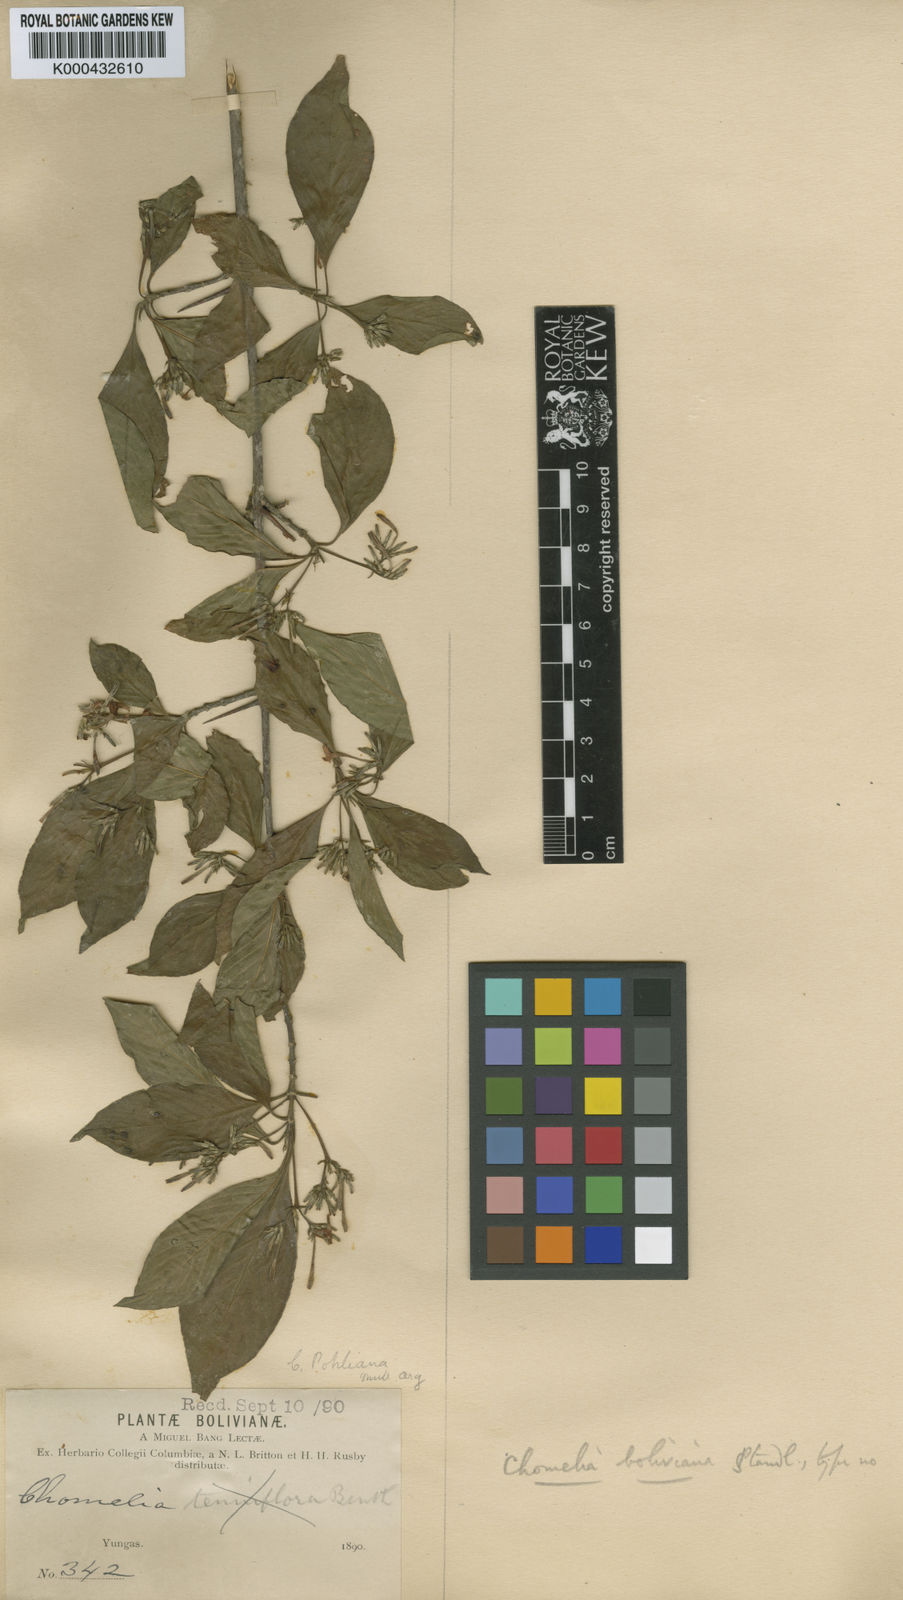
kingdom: Plantae
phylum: Tracheophyta
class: Magnoliopsida
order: Gentianales
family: Rubiaceae
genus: Chomelia
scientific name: Chomelia paniculata
